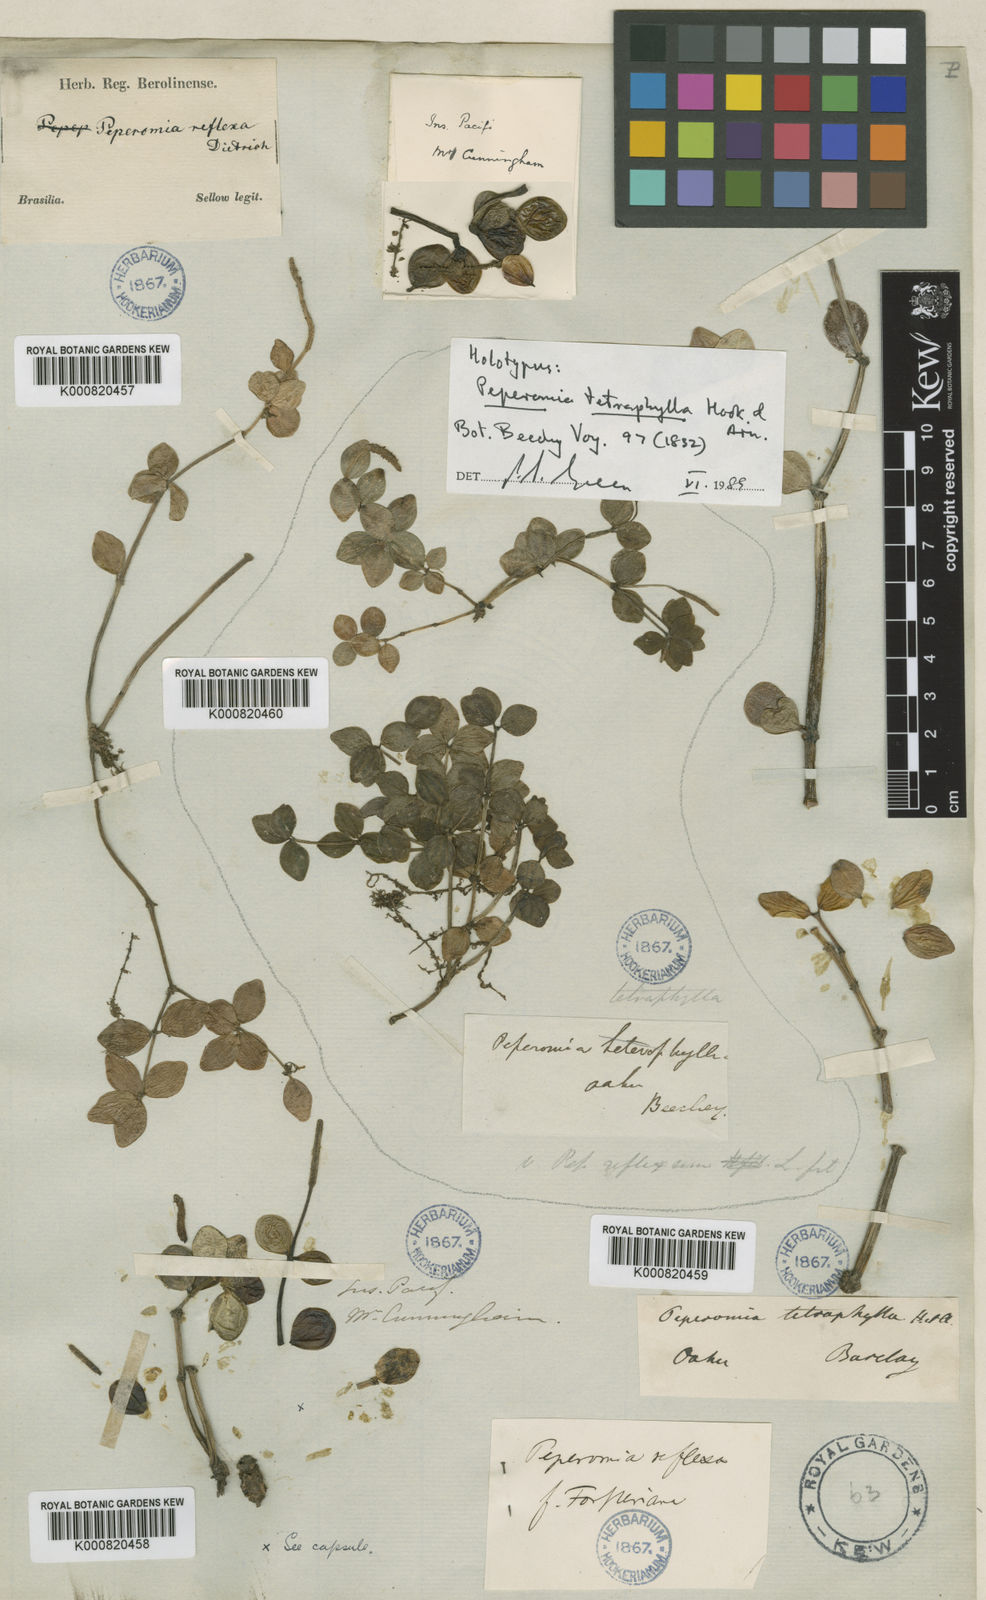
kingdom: Plantae
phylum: Tracheophyta
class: Magnoliopsida
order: Piperales
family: Piperaceae
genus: Peperomia
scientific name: Peperomia tetraphylla
